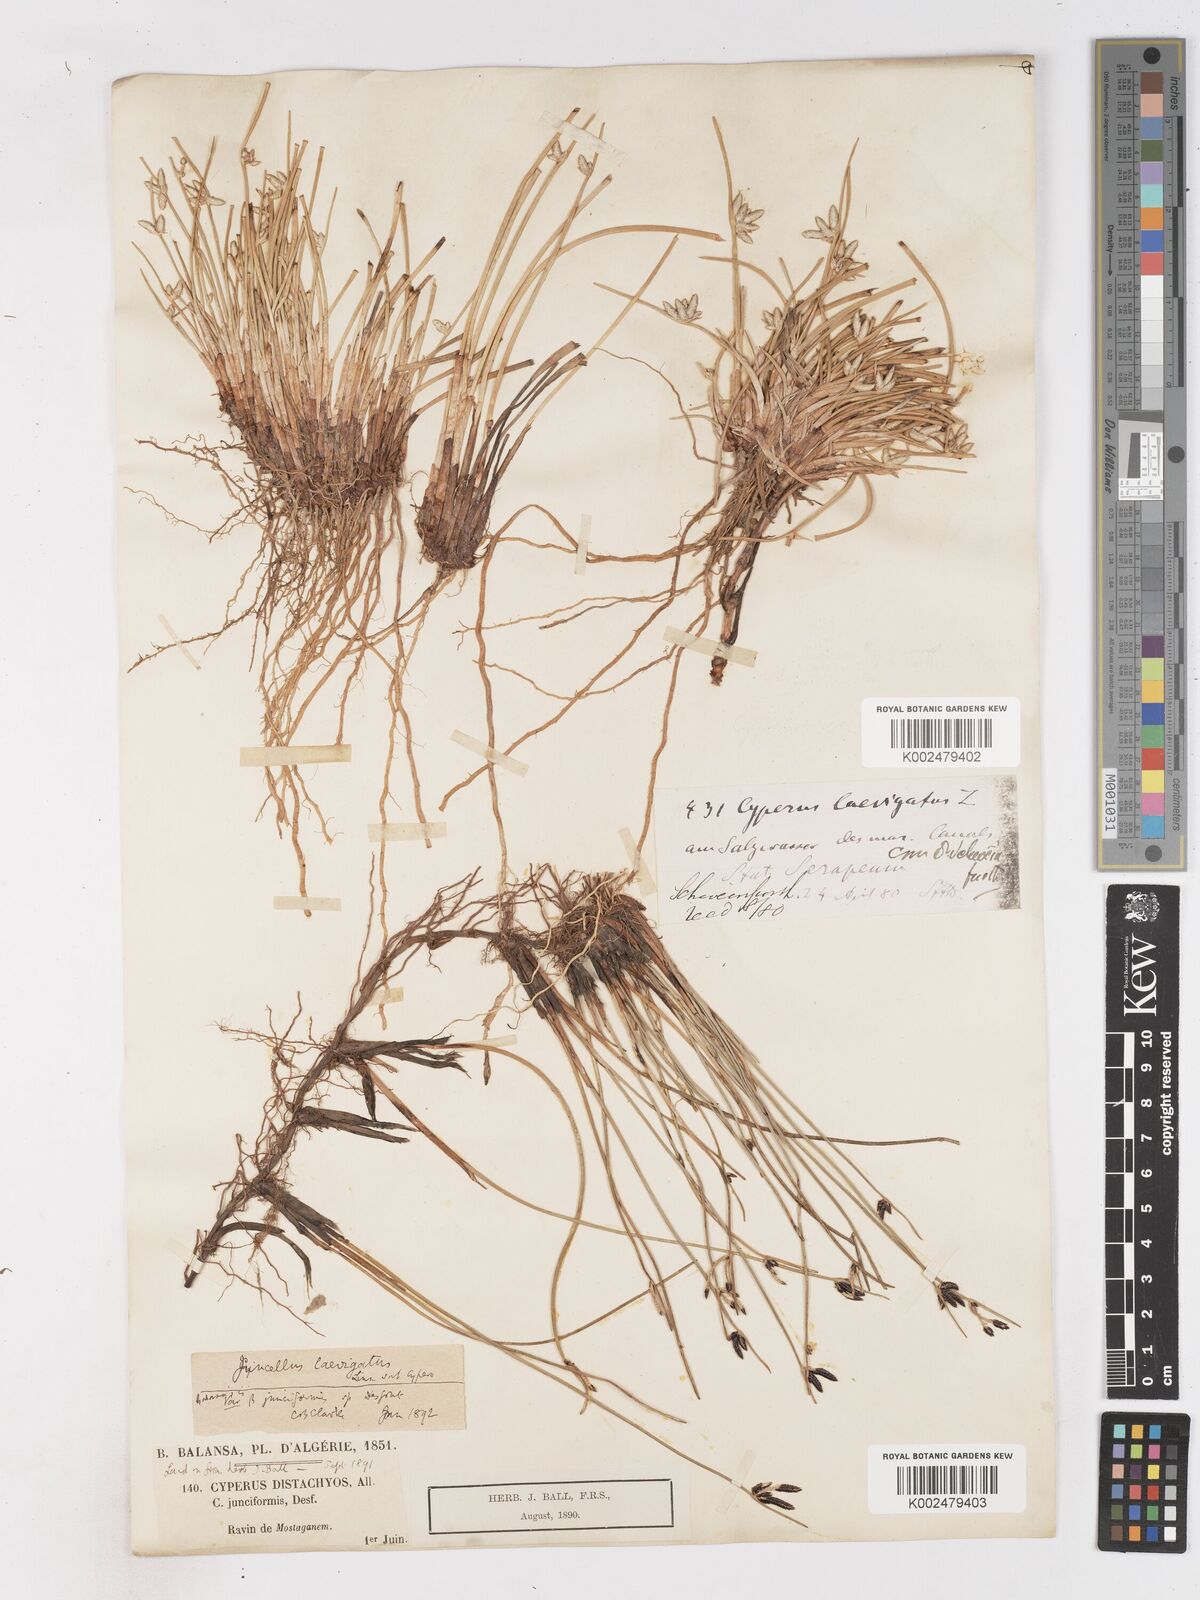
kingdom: Plantae
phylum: Tracheophyta
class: Liliopsida
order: Poales
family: Cyperaceae
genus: Cyperus
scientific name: Cyperus laevigatus
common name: Smooth flat sedge
